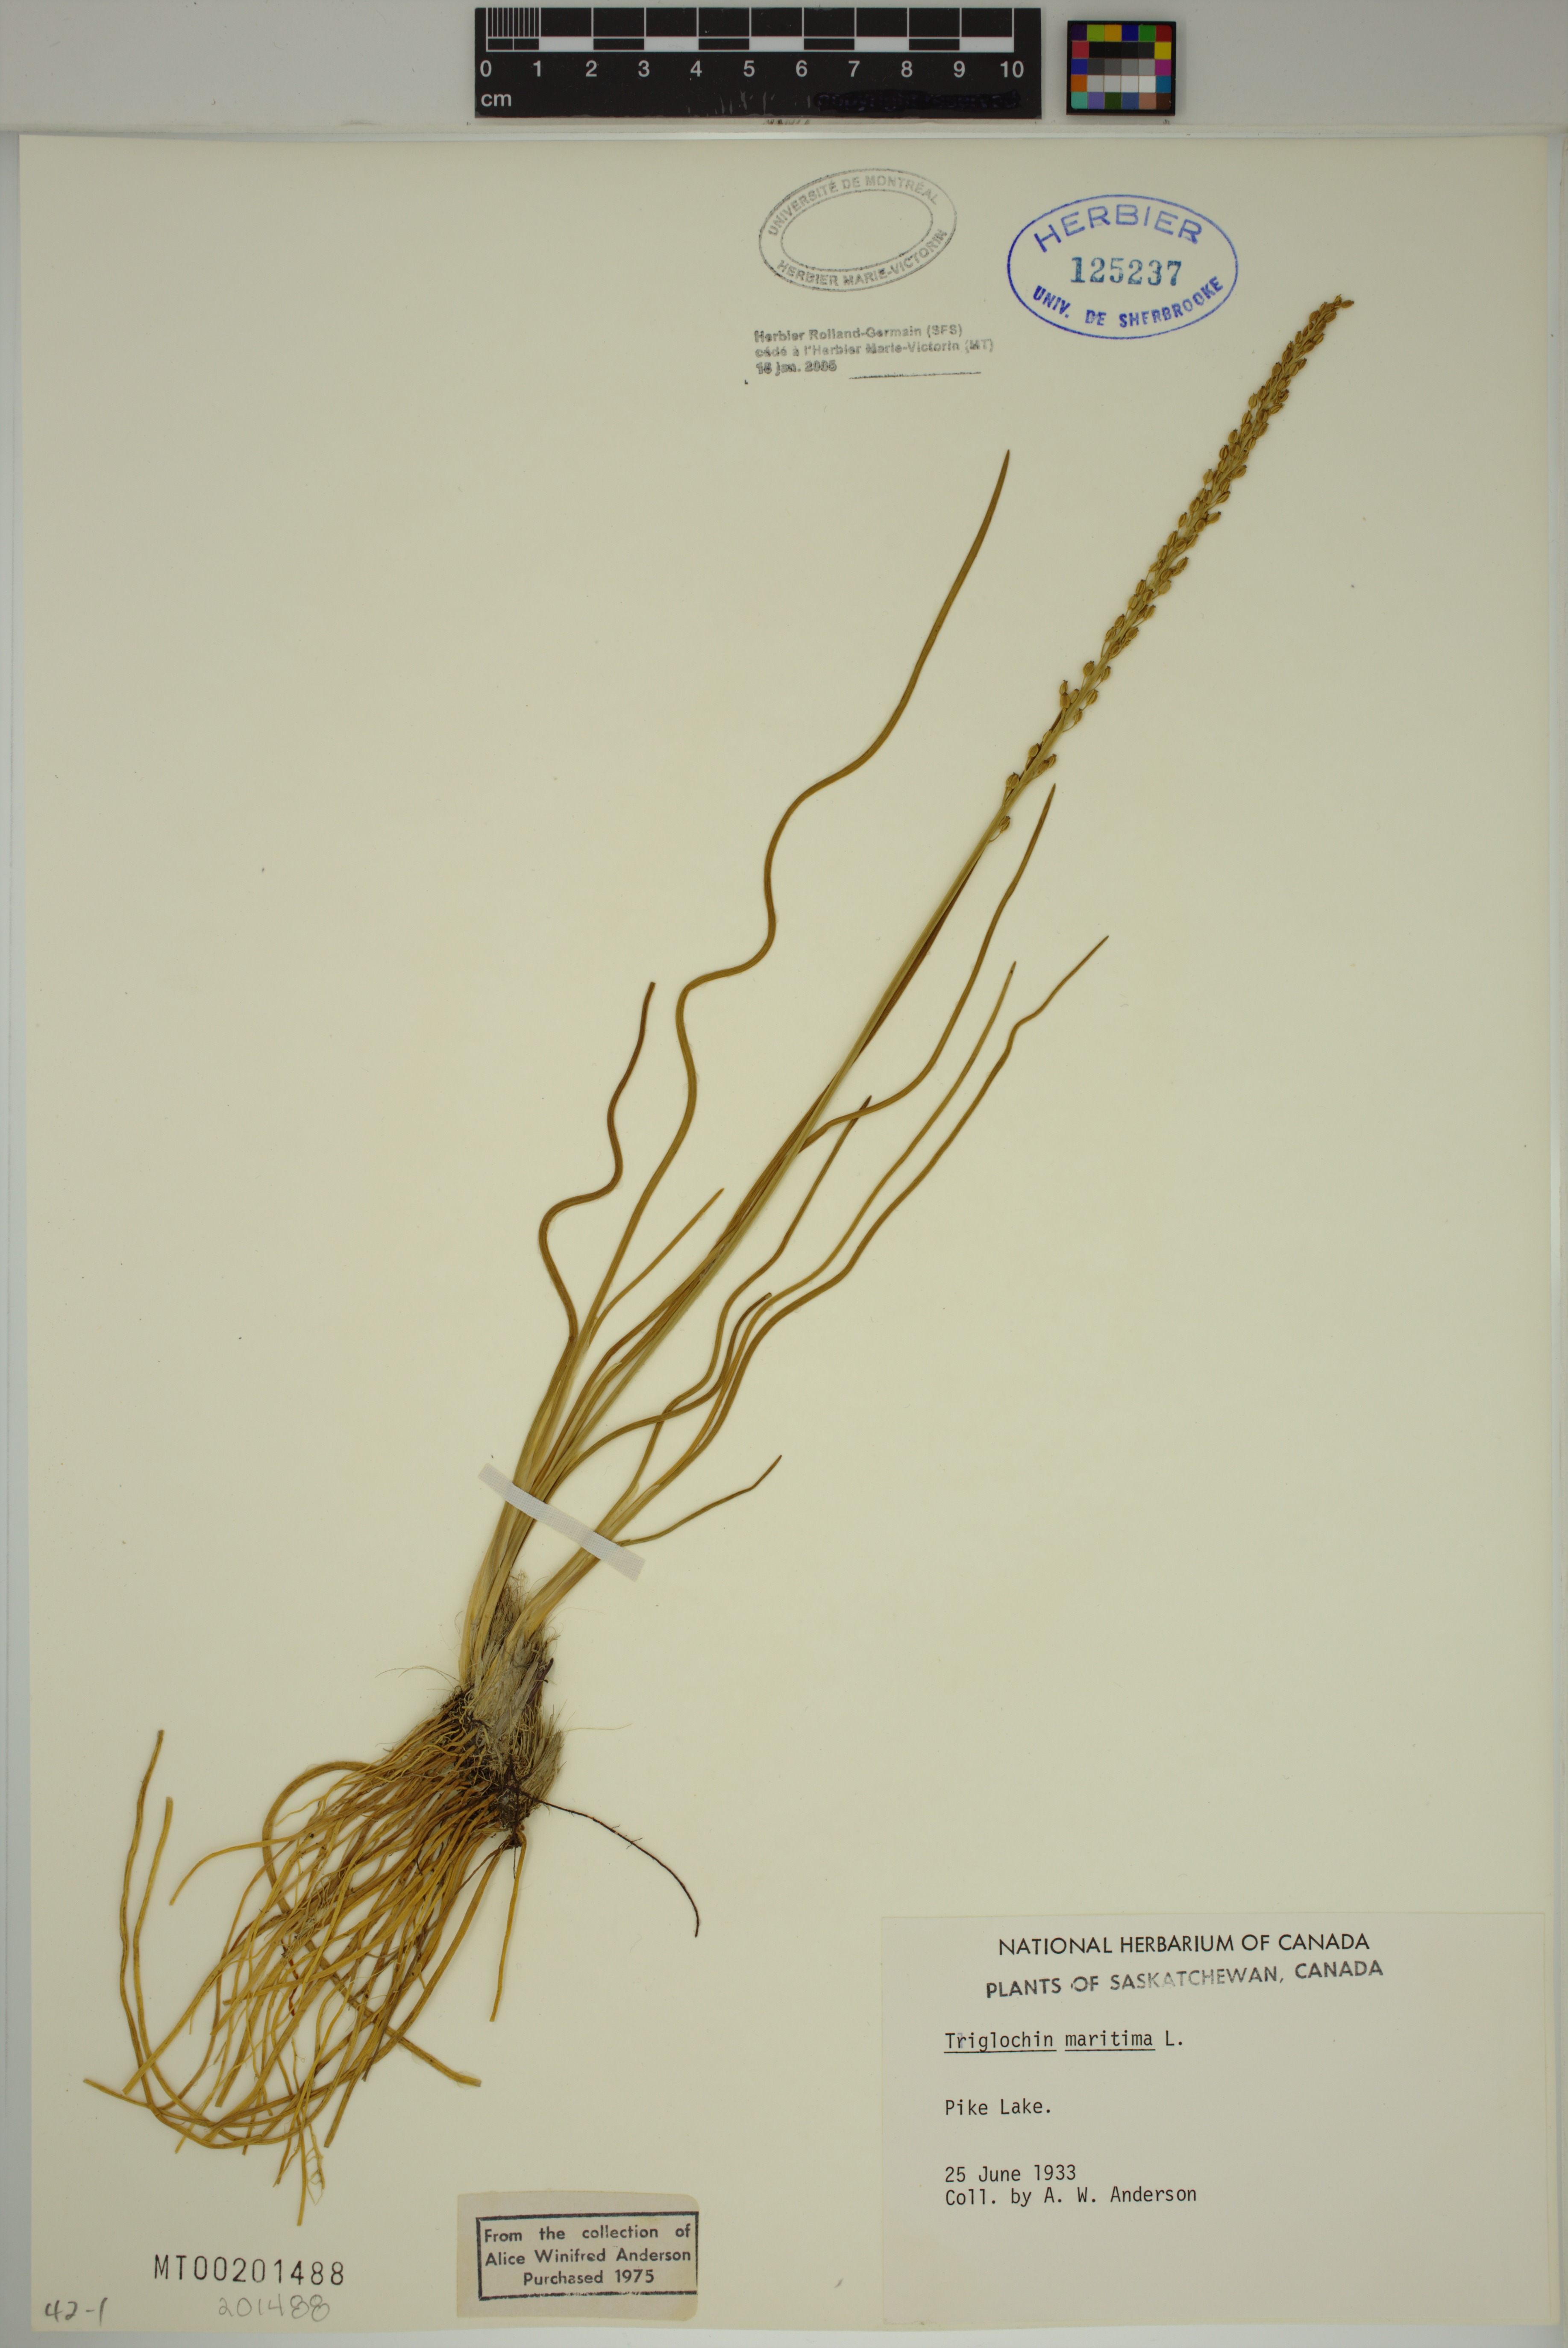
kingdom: Plantae
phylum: Tracheophyta
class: Liliopsida
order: Alismatales
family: Juncaginaceae
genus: Triglochin
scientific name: Triglochin maritima
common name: Sea arrowgrass
